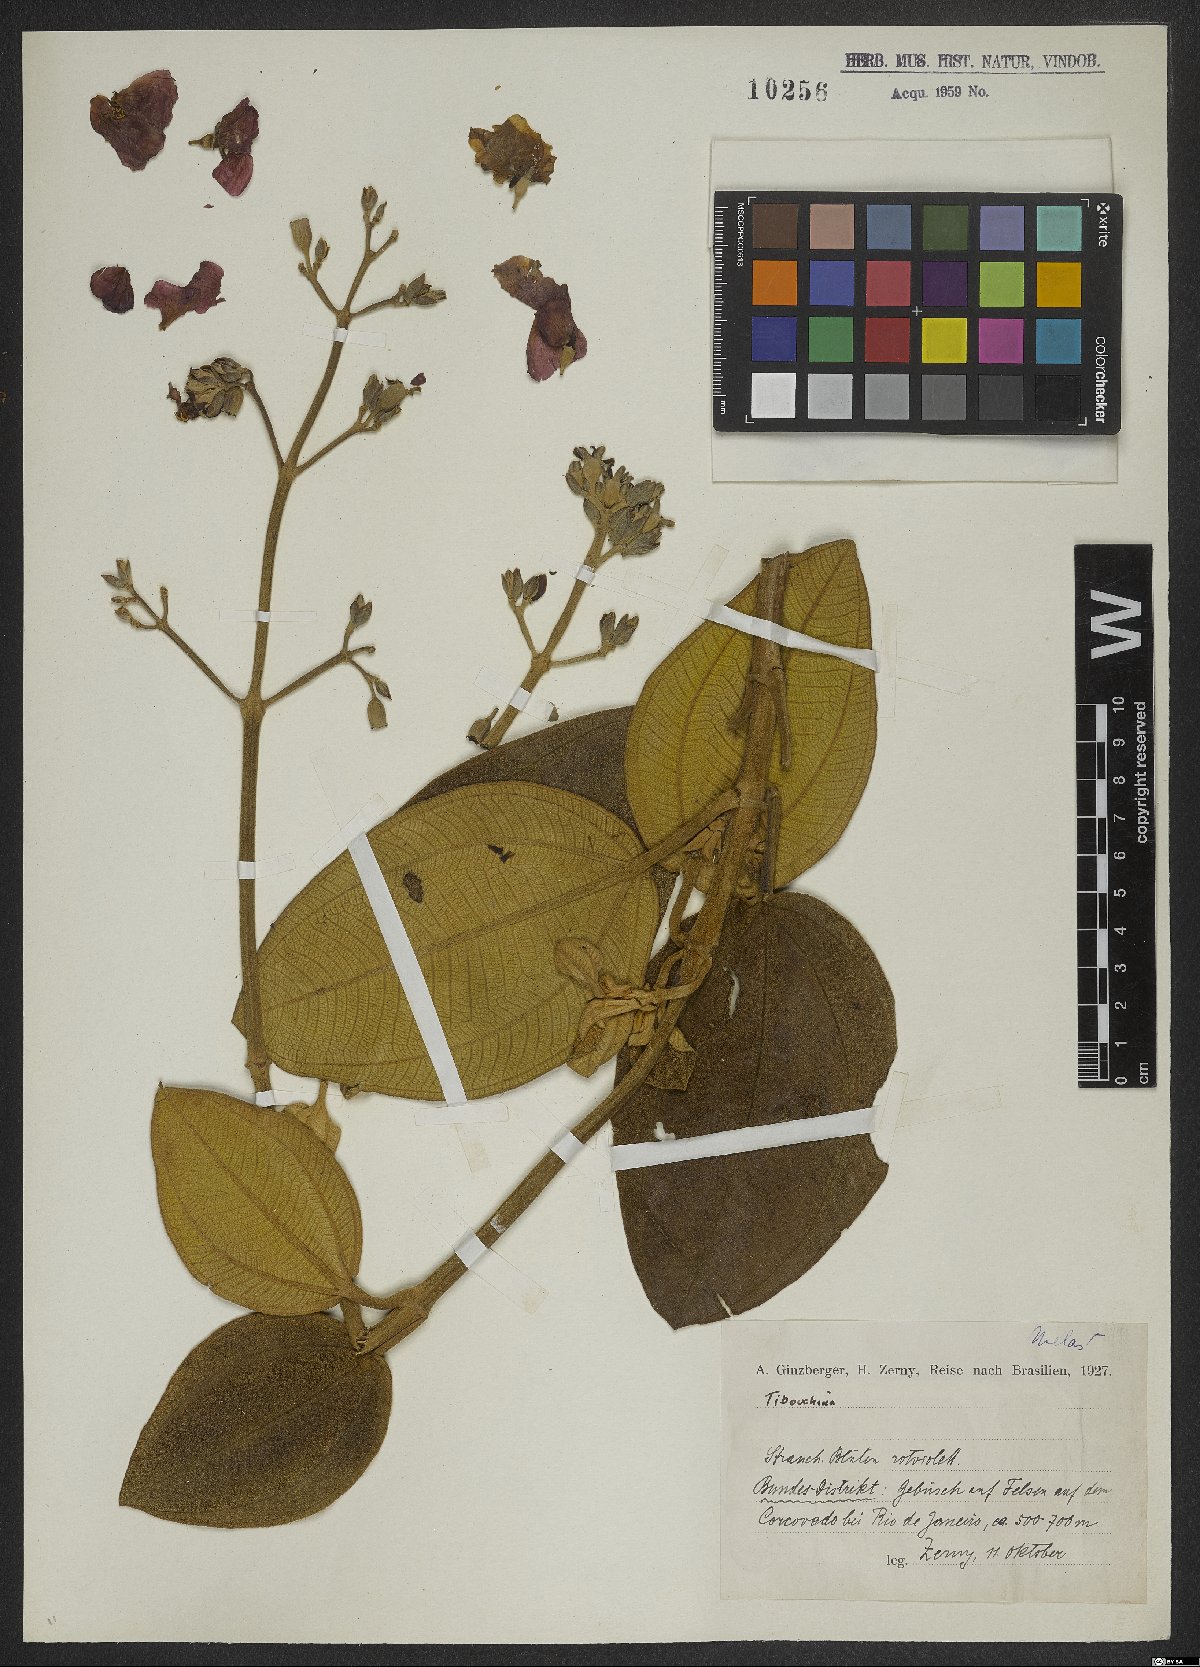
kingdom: Plantae
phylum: Tracheophyta
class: Magnoliopsida
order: Myrtales
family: Melastomataceae
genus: Tibouchina
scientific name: Tibouchina
